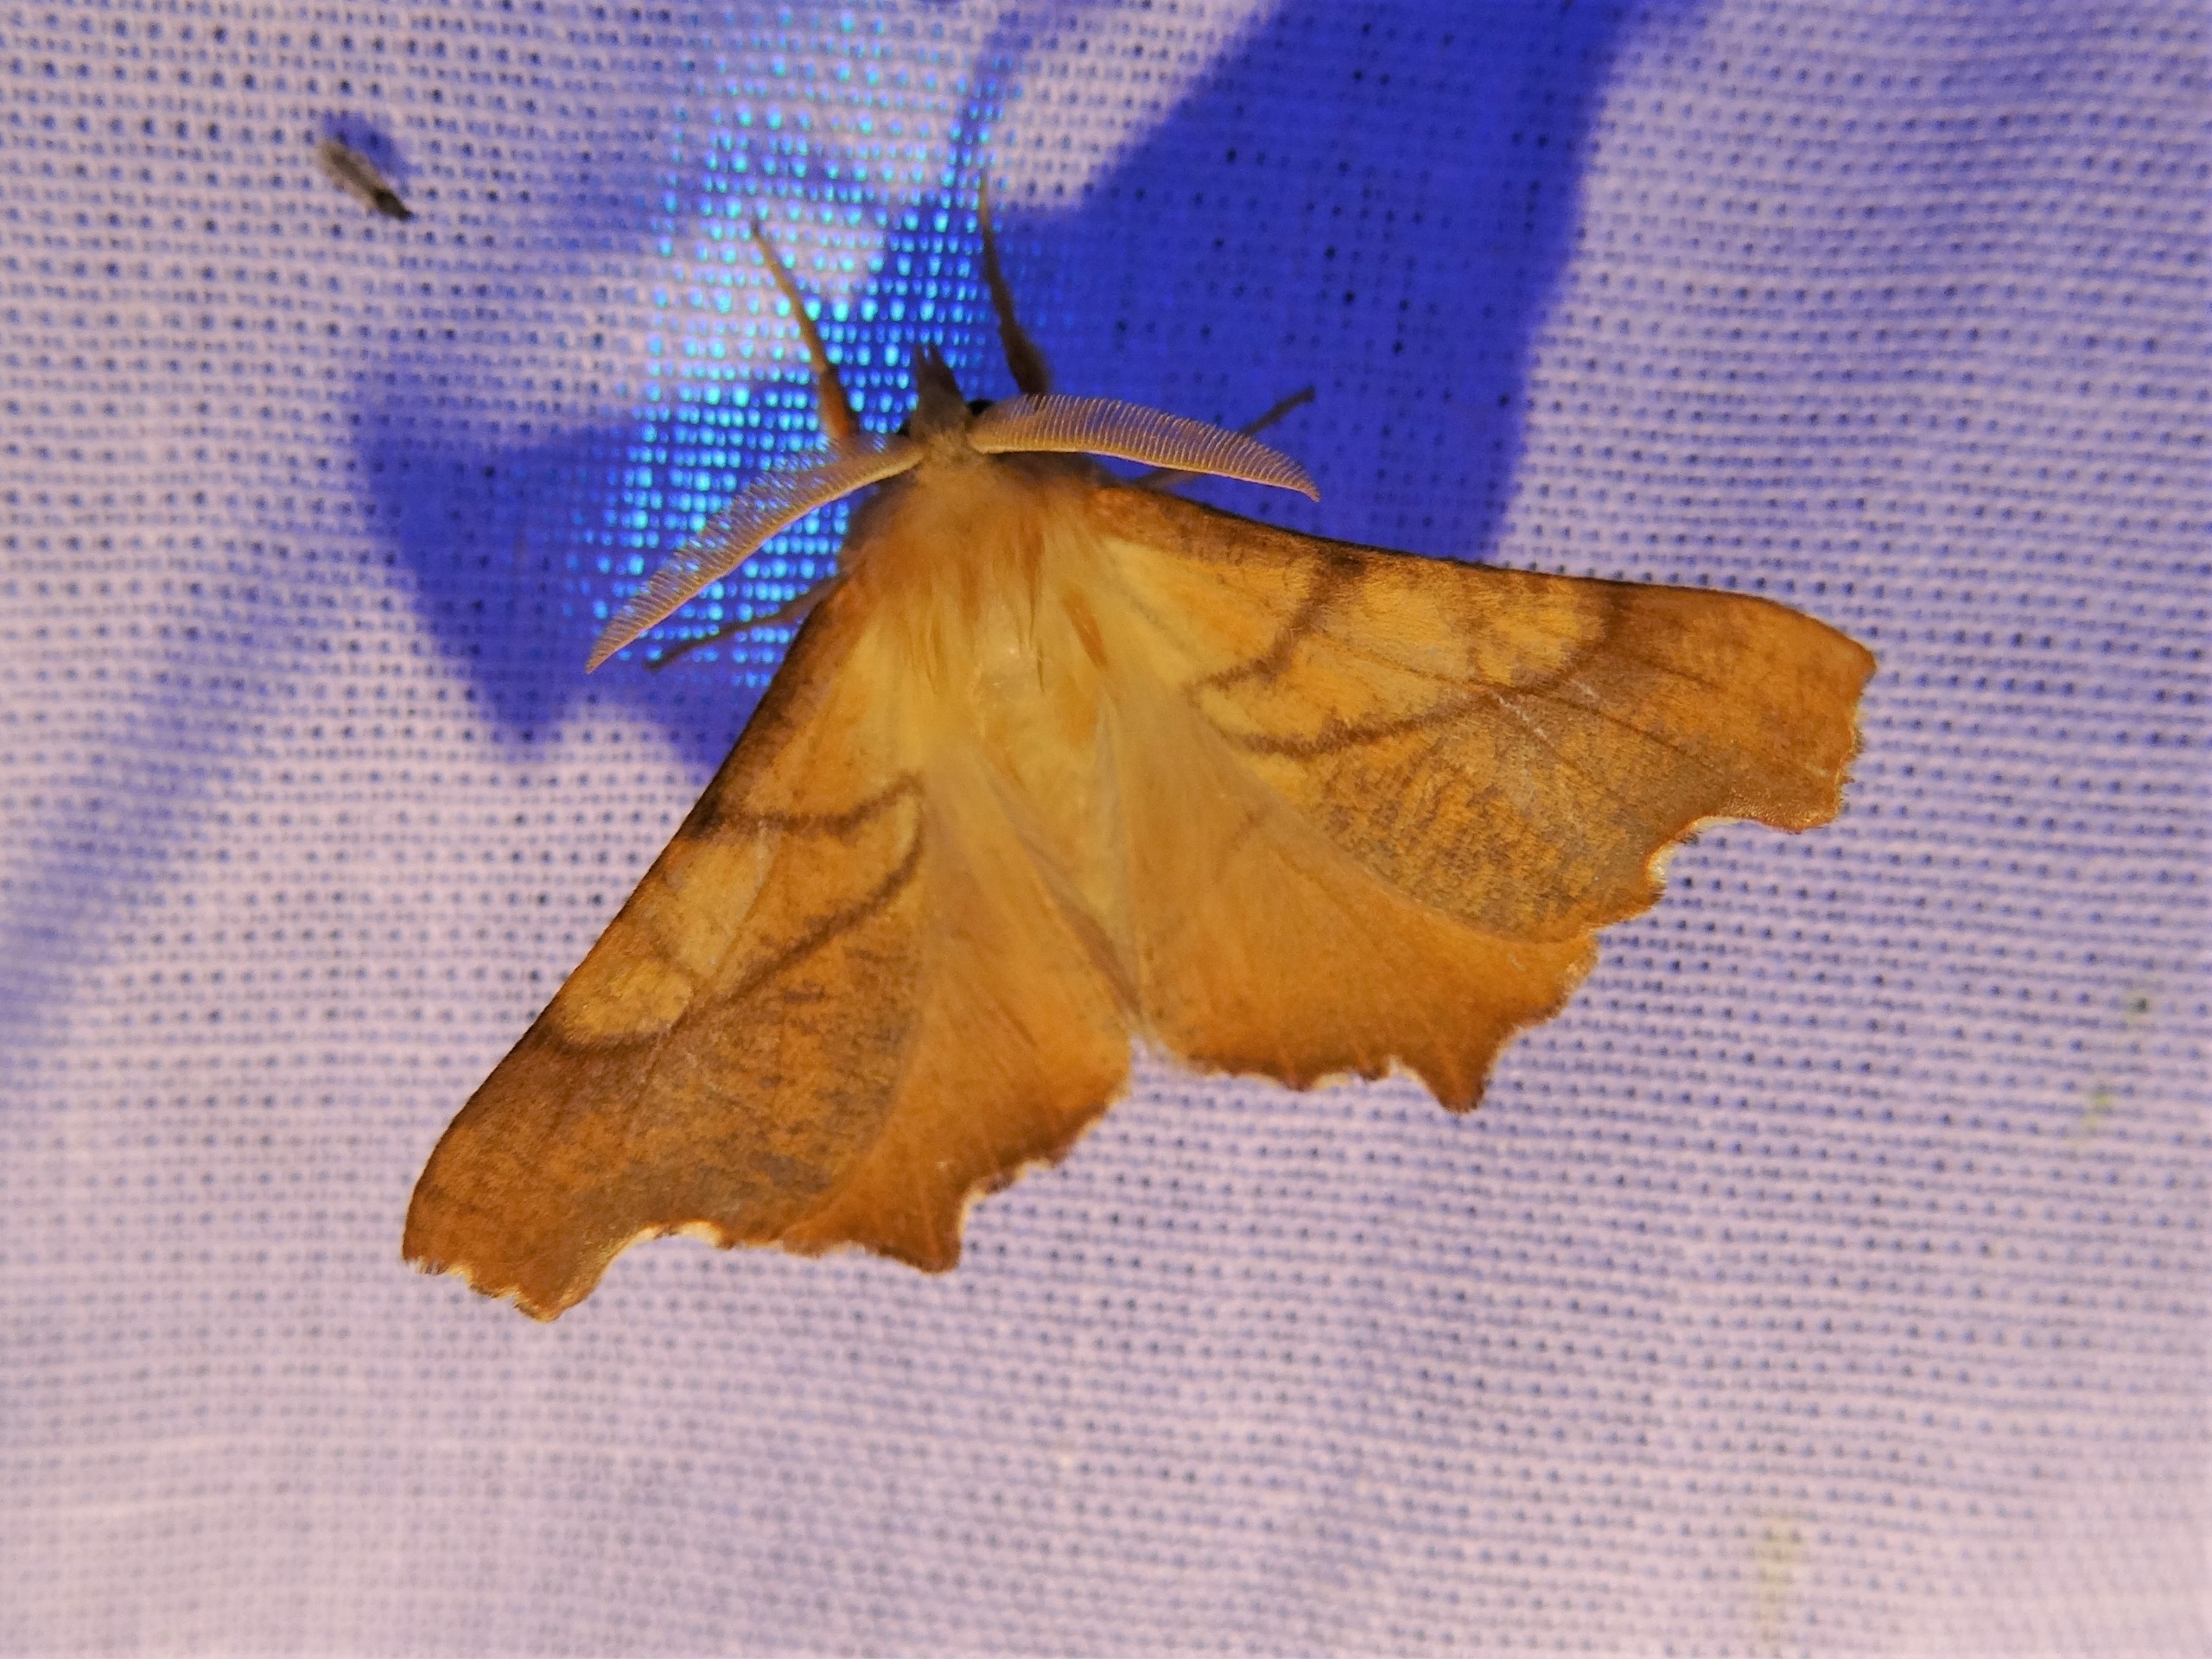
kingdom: Animalia
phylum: Arthropoda
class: Insecta
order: Lepidoptera
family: Geometridae
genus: Ennomos
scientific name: Ennomos fuscantaria
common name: Asketandmåler
